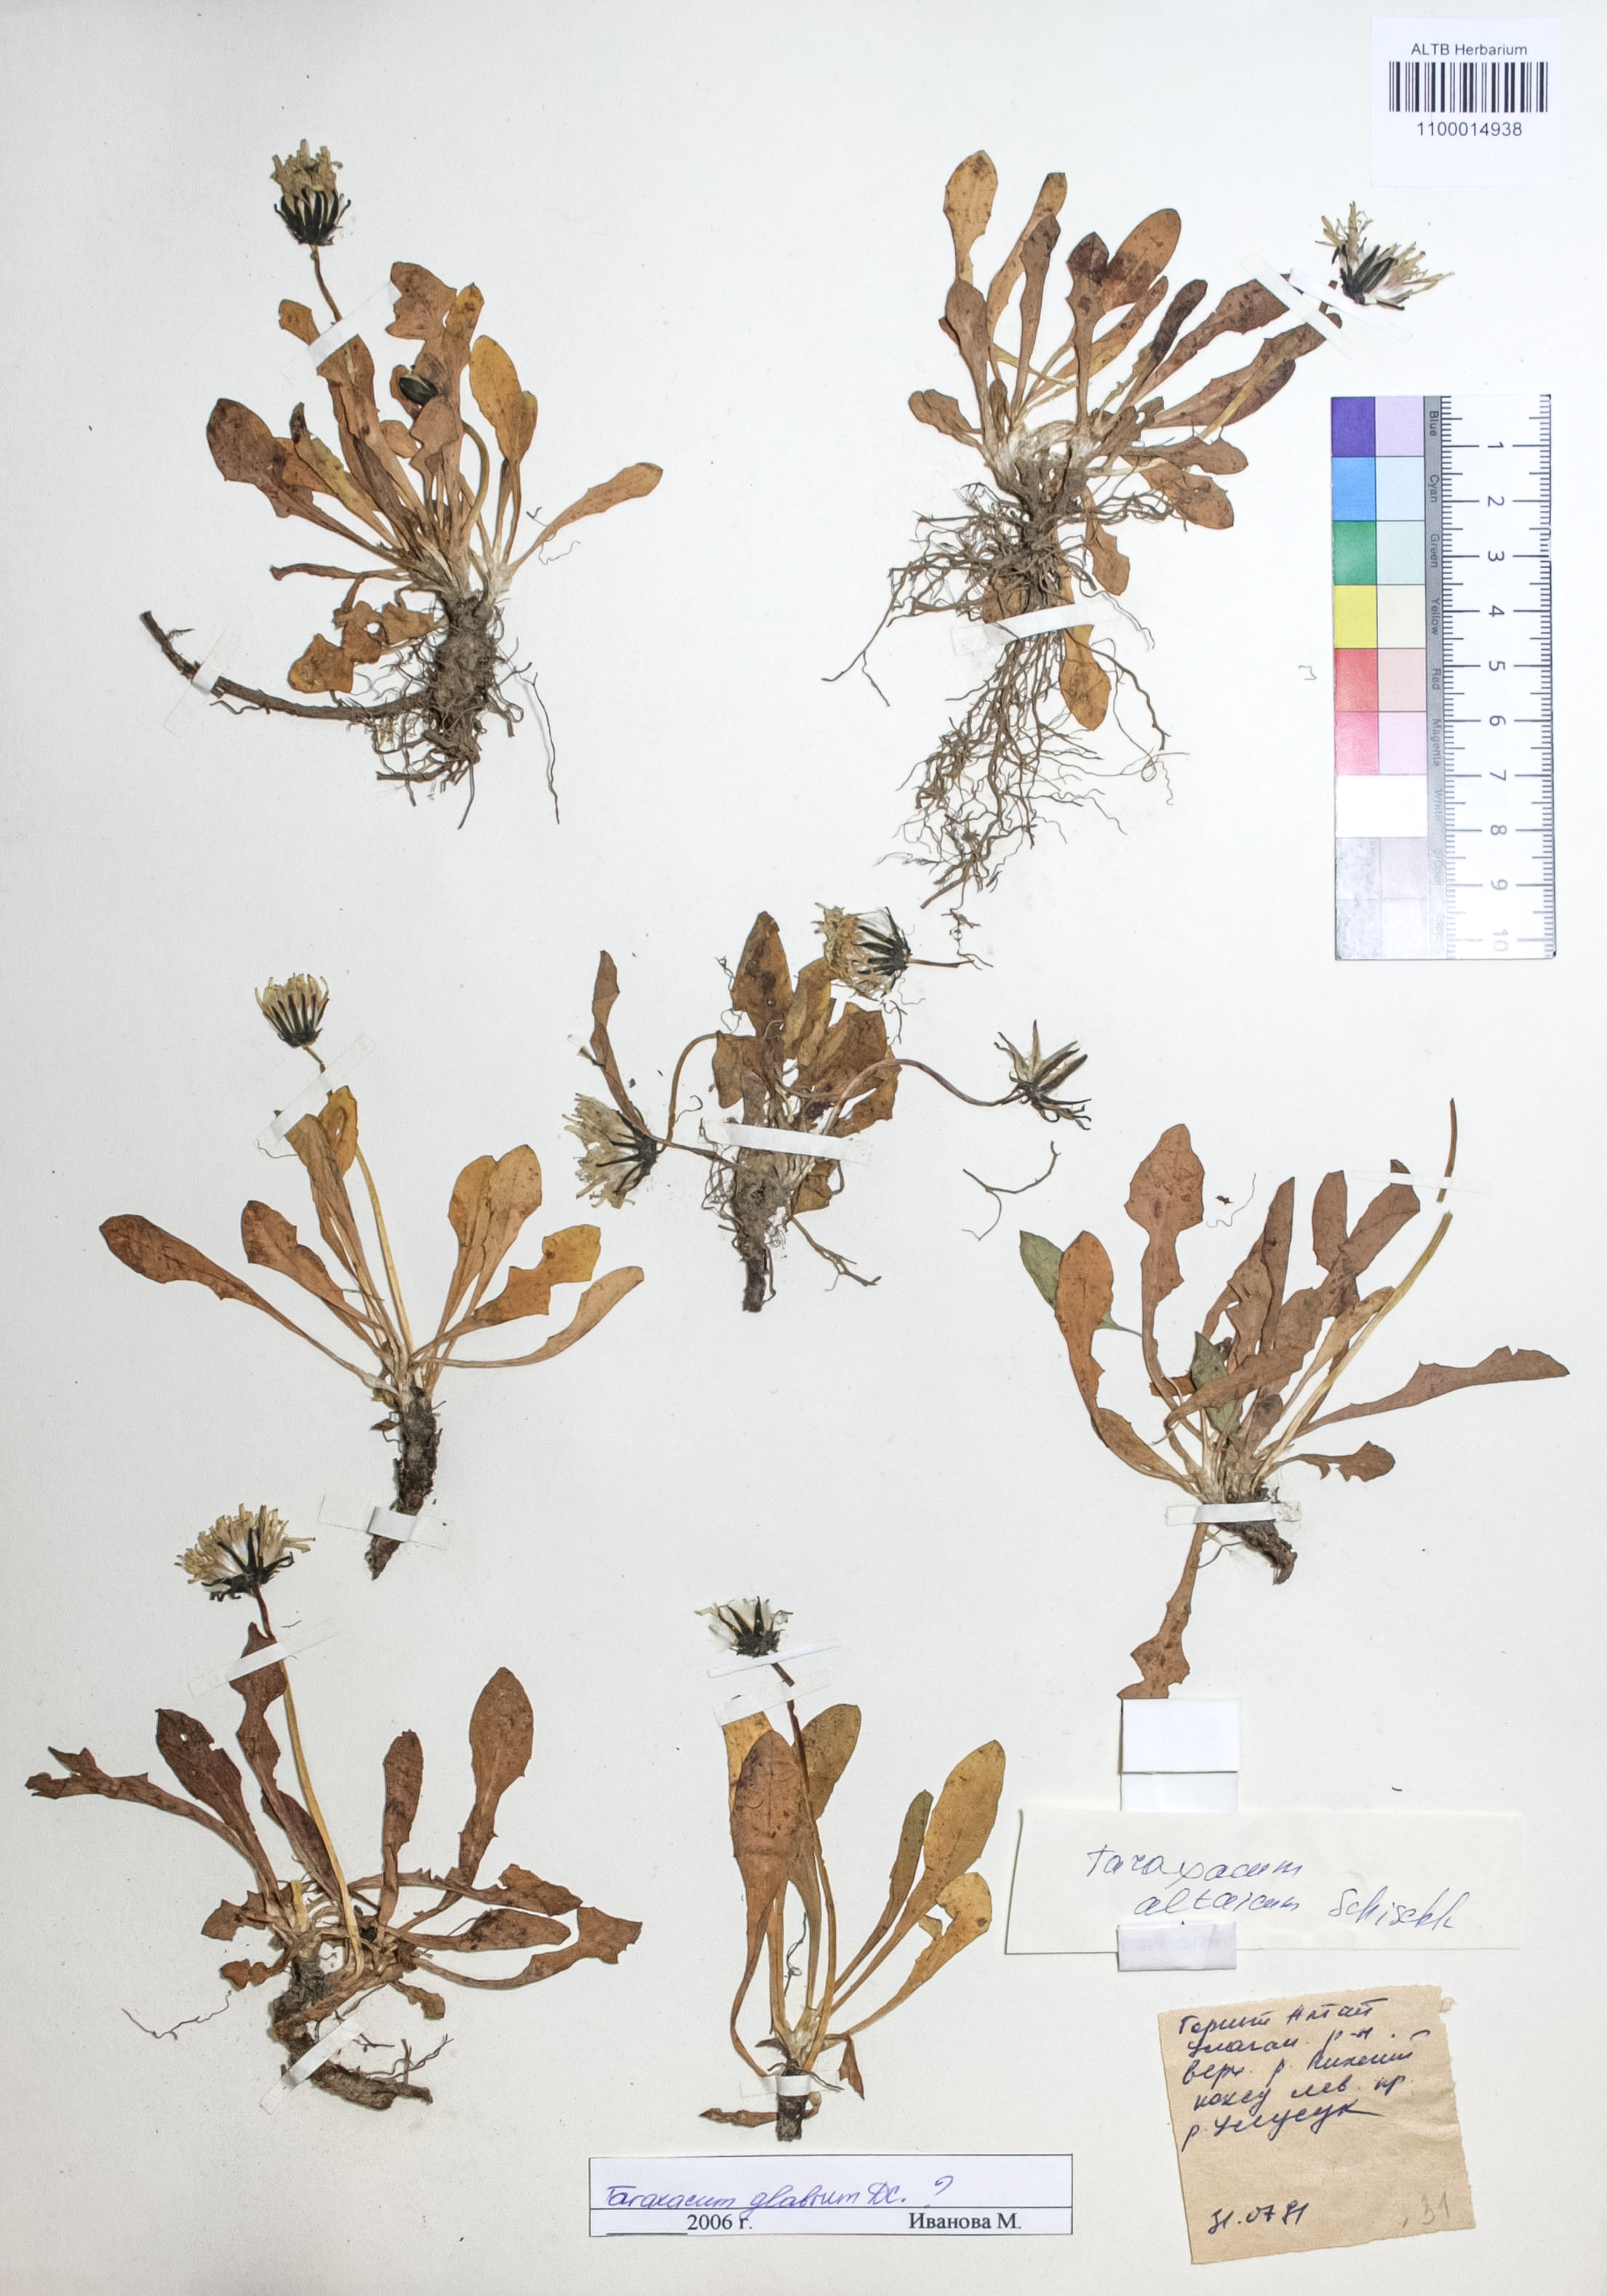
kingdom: Plantae
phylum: Tracheophyta
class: Magnoliopsida
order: Asterales
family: Asteraceae
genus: Taraxacum
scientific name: Taraxacum glabrum
